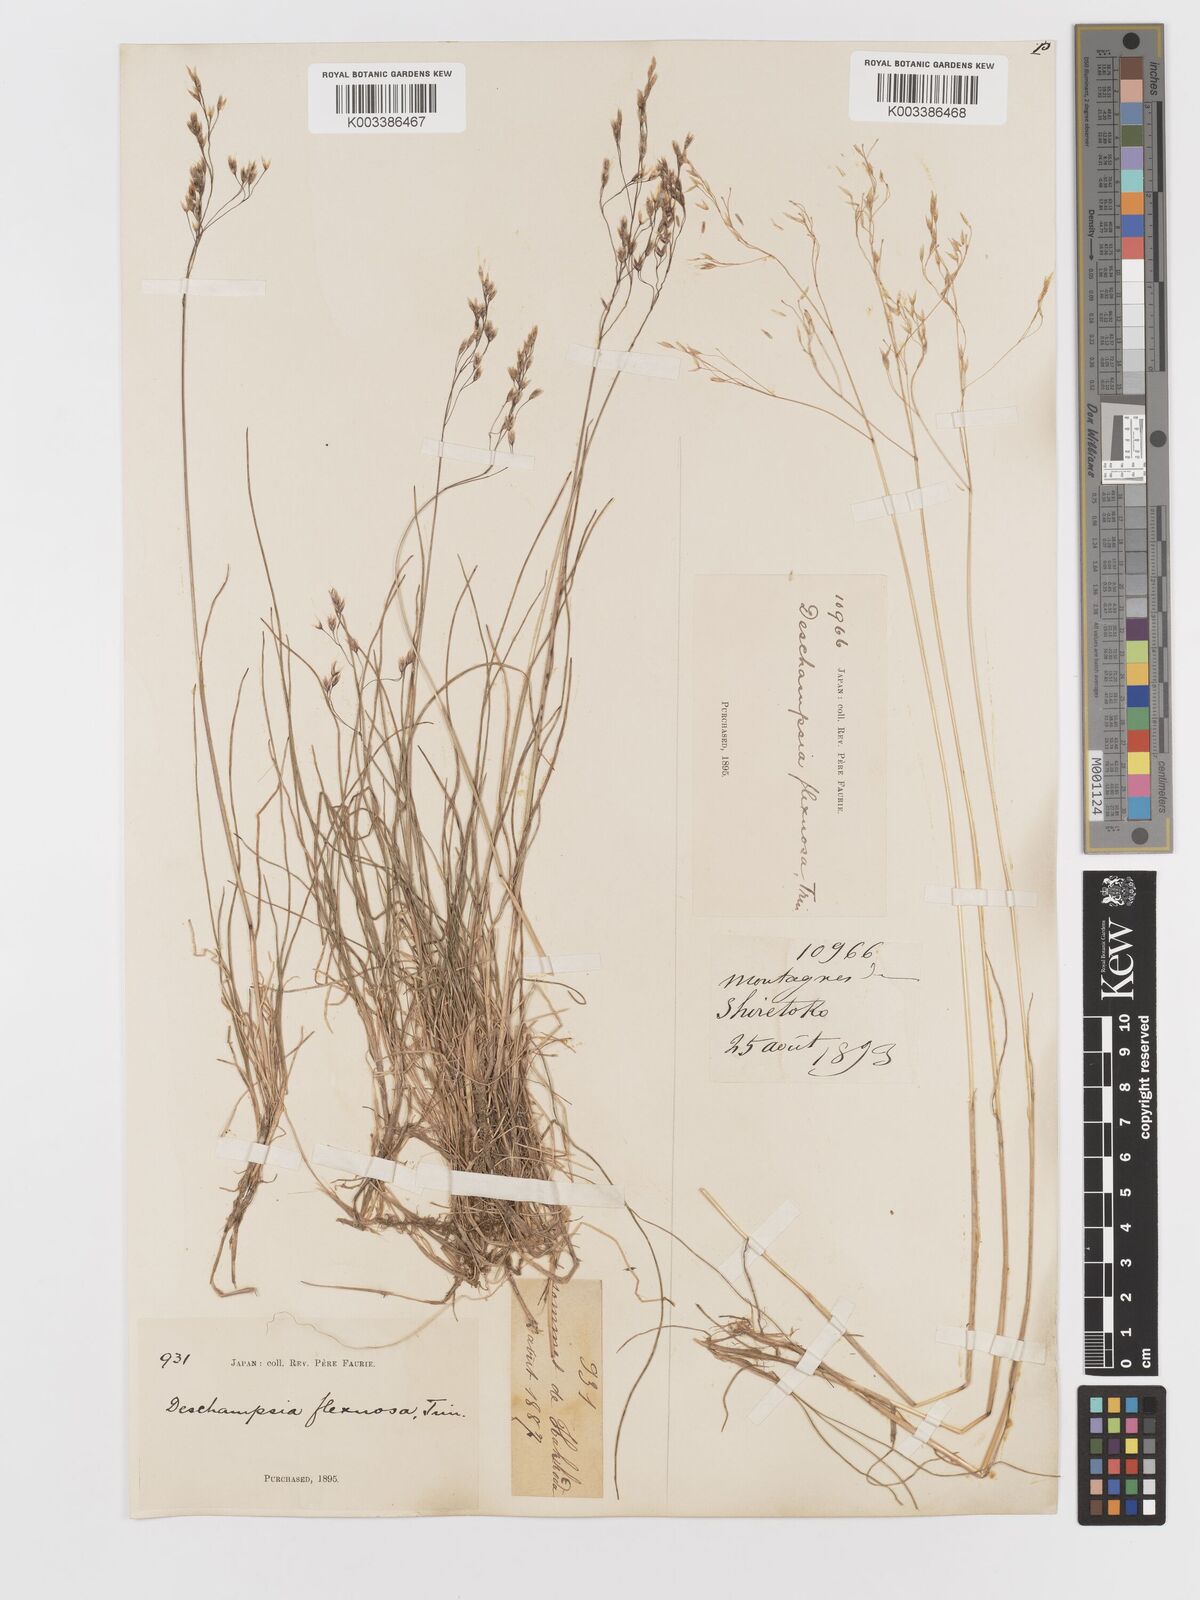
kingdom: Plantae
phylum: Tracheophyta
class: Liliopsida
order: Poales
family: Poaceae
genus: Avenella
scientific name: Avenella flexuosa
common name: Wavy hairgrass
